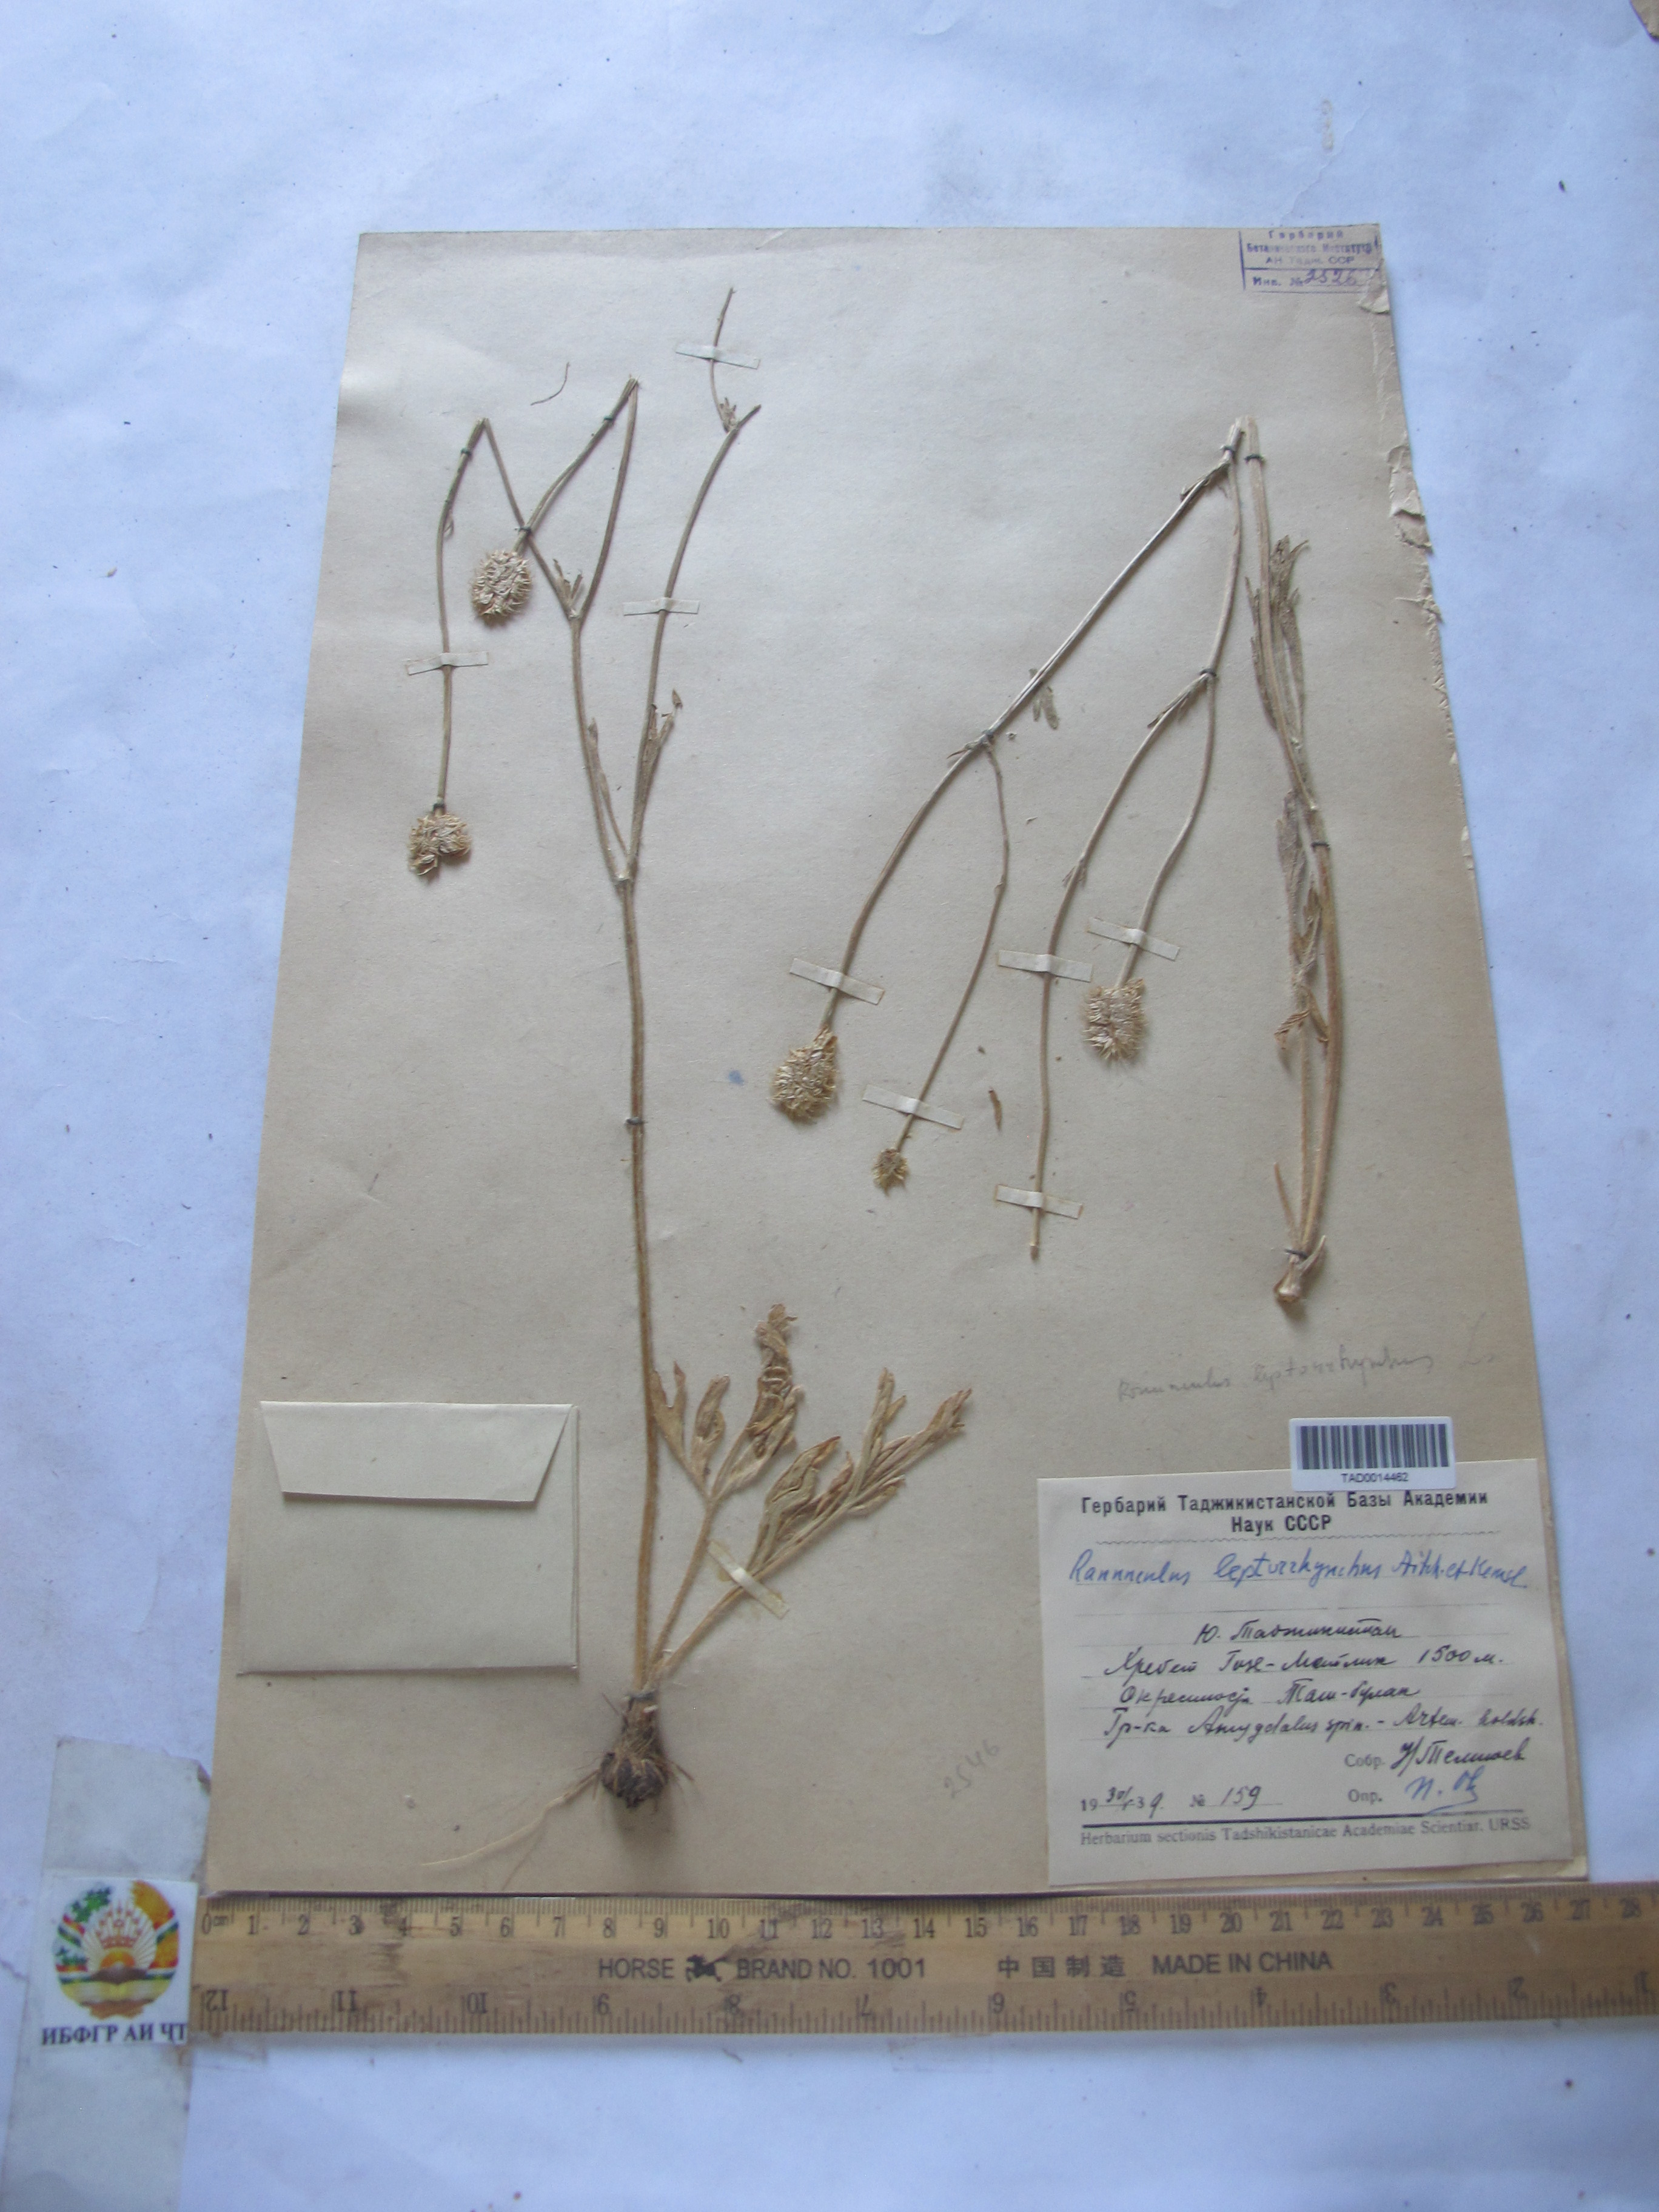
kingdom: Plantae
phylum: Tracheophyta
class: Magnoliopsida
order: Ranunculales
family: Ranunculaceae
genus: Ranunculus
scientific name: Ranunculus leptorrhynchus
